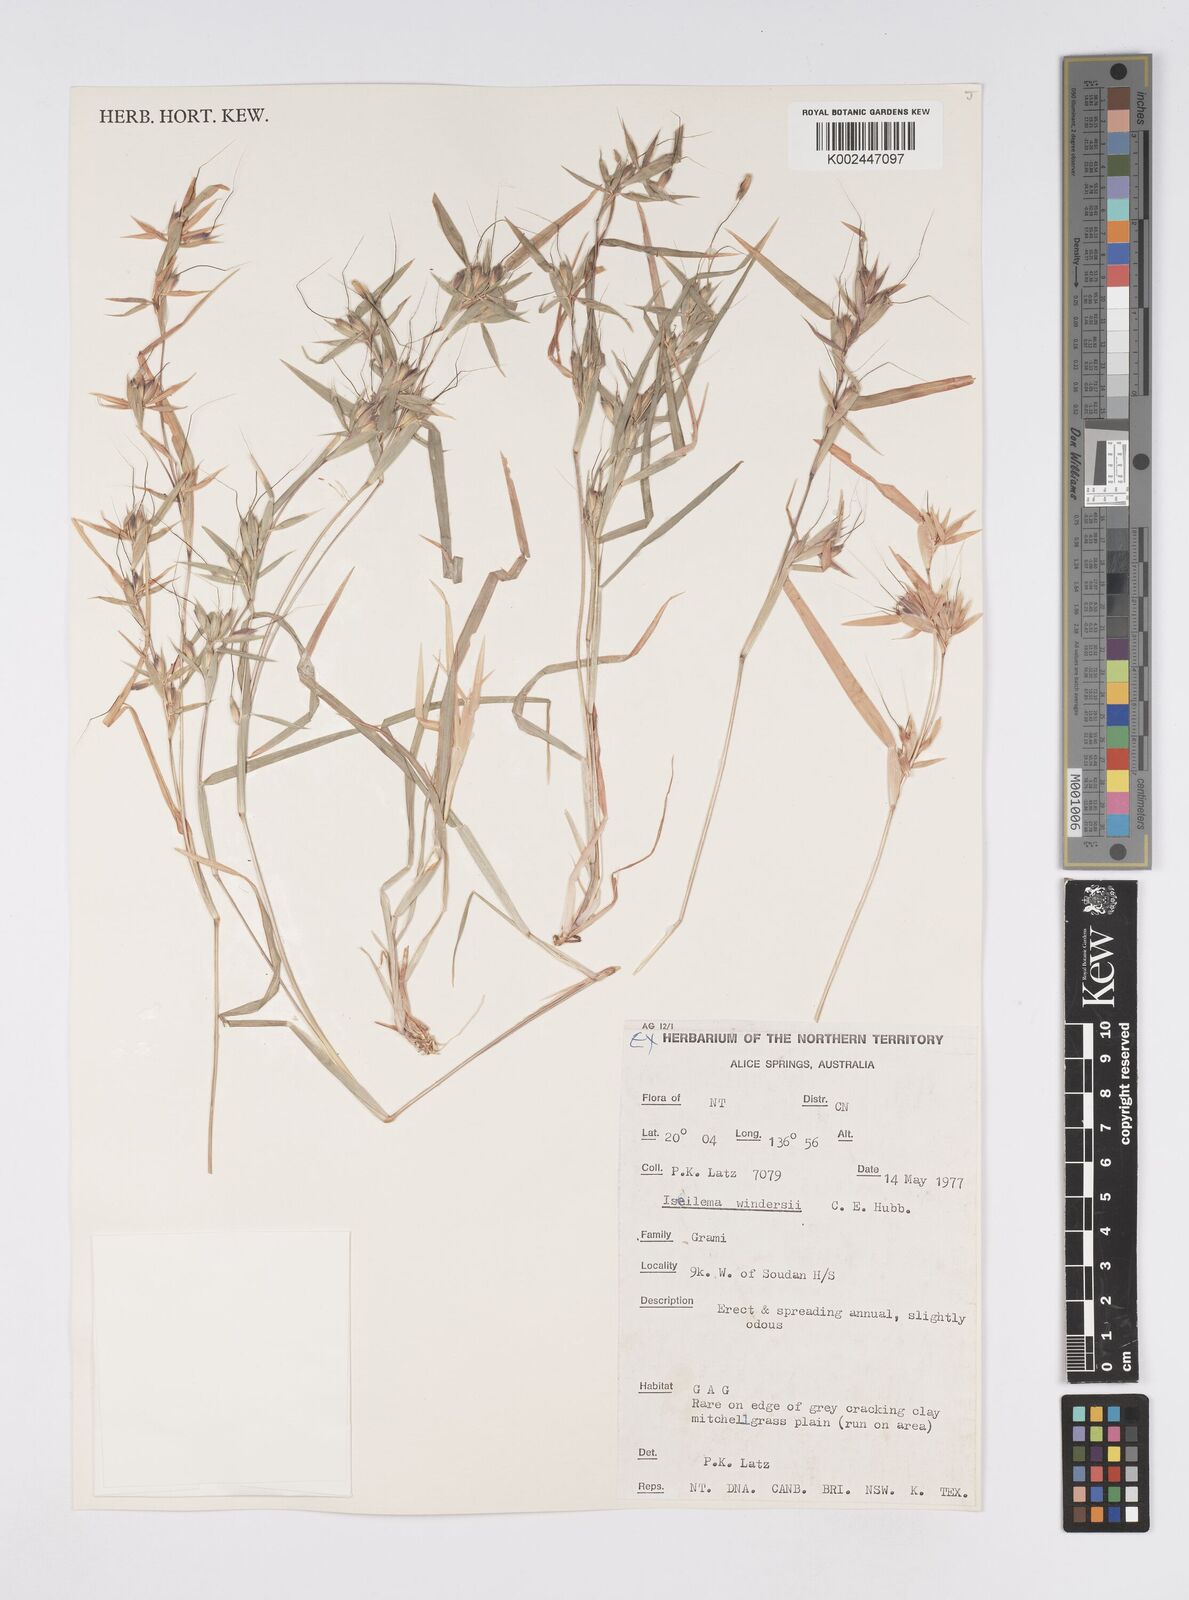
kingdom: Plantae
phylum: Tracheophyta
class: Liliopsida
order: Poales
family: Poaceae
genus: Iseilema
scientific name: Iseilema windersii
